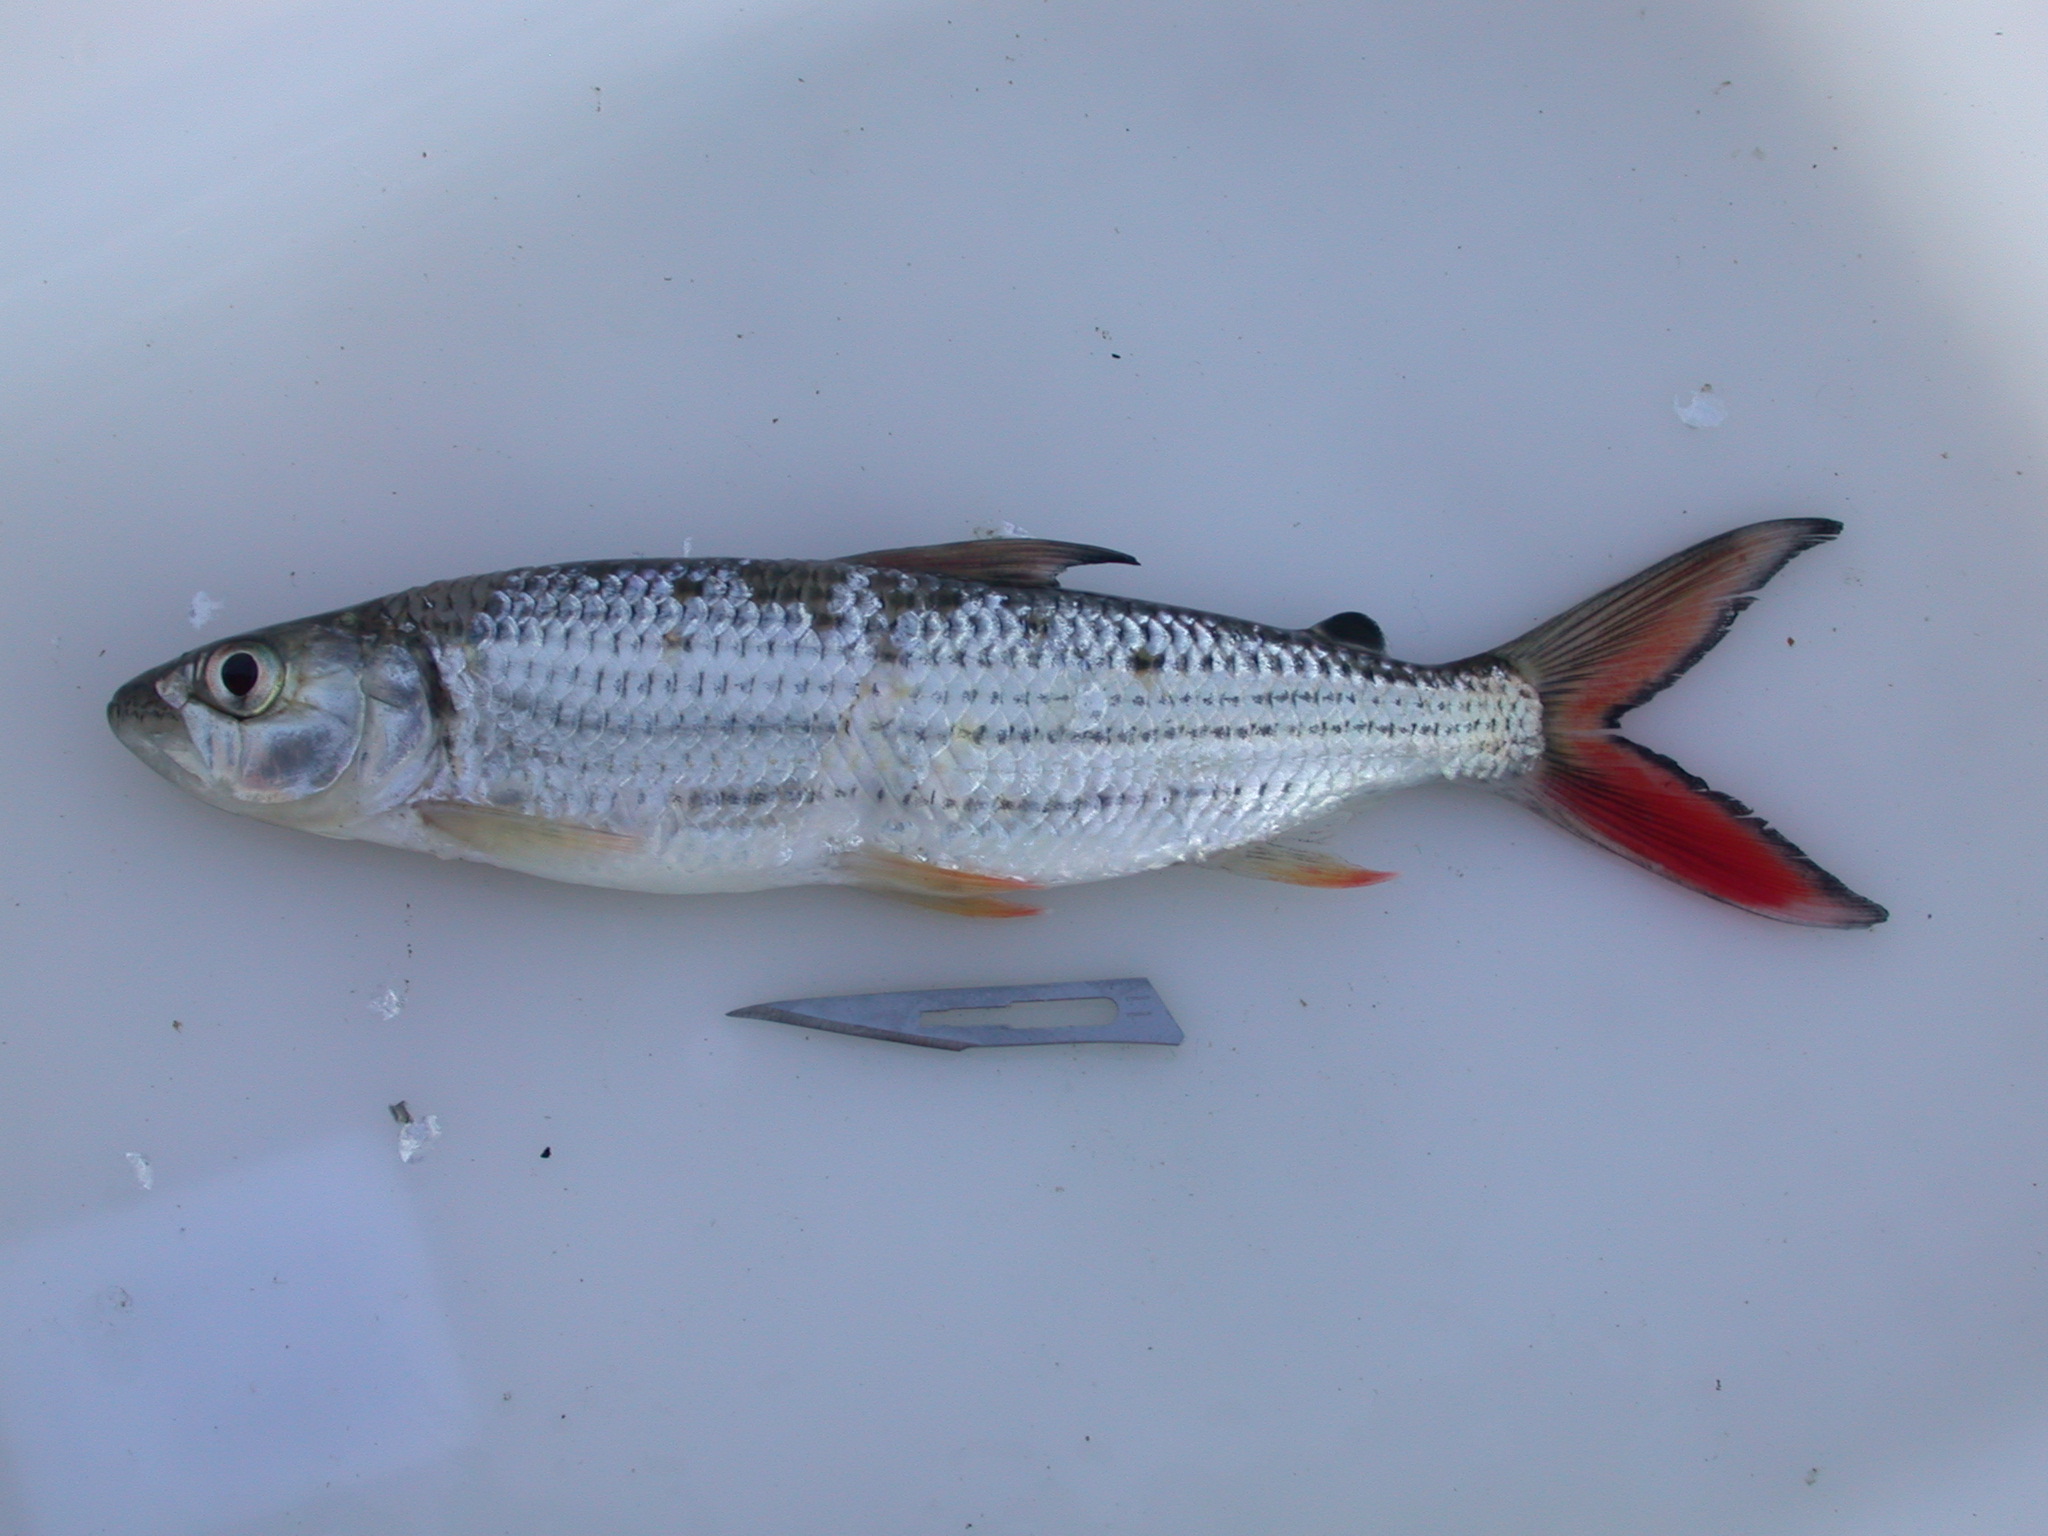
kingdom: Animalia
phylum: Chordata
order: Characiformes
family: Alestidae
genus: Hydrocynus
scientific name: Hydrocynus vittatus
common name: Tigerfish
